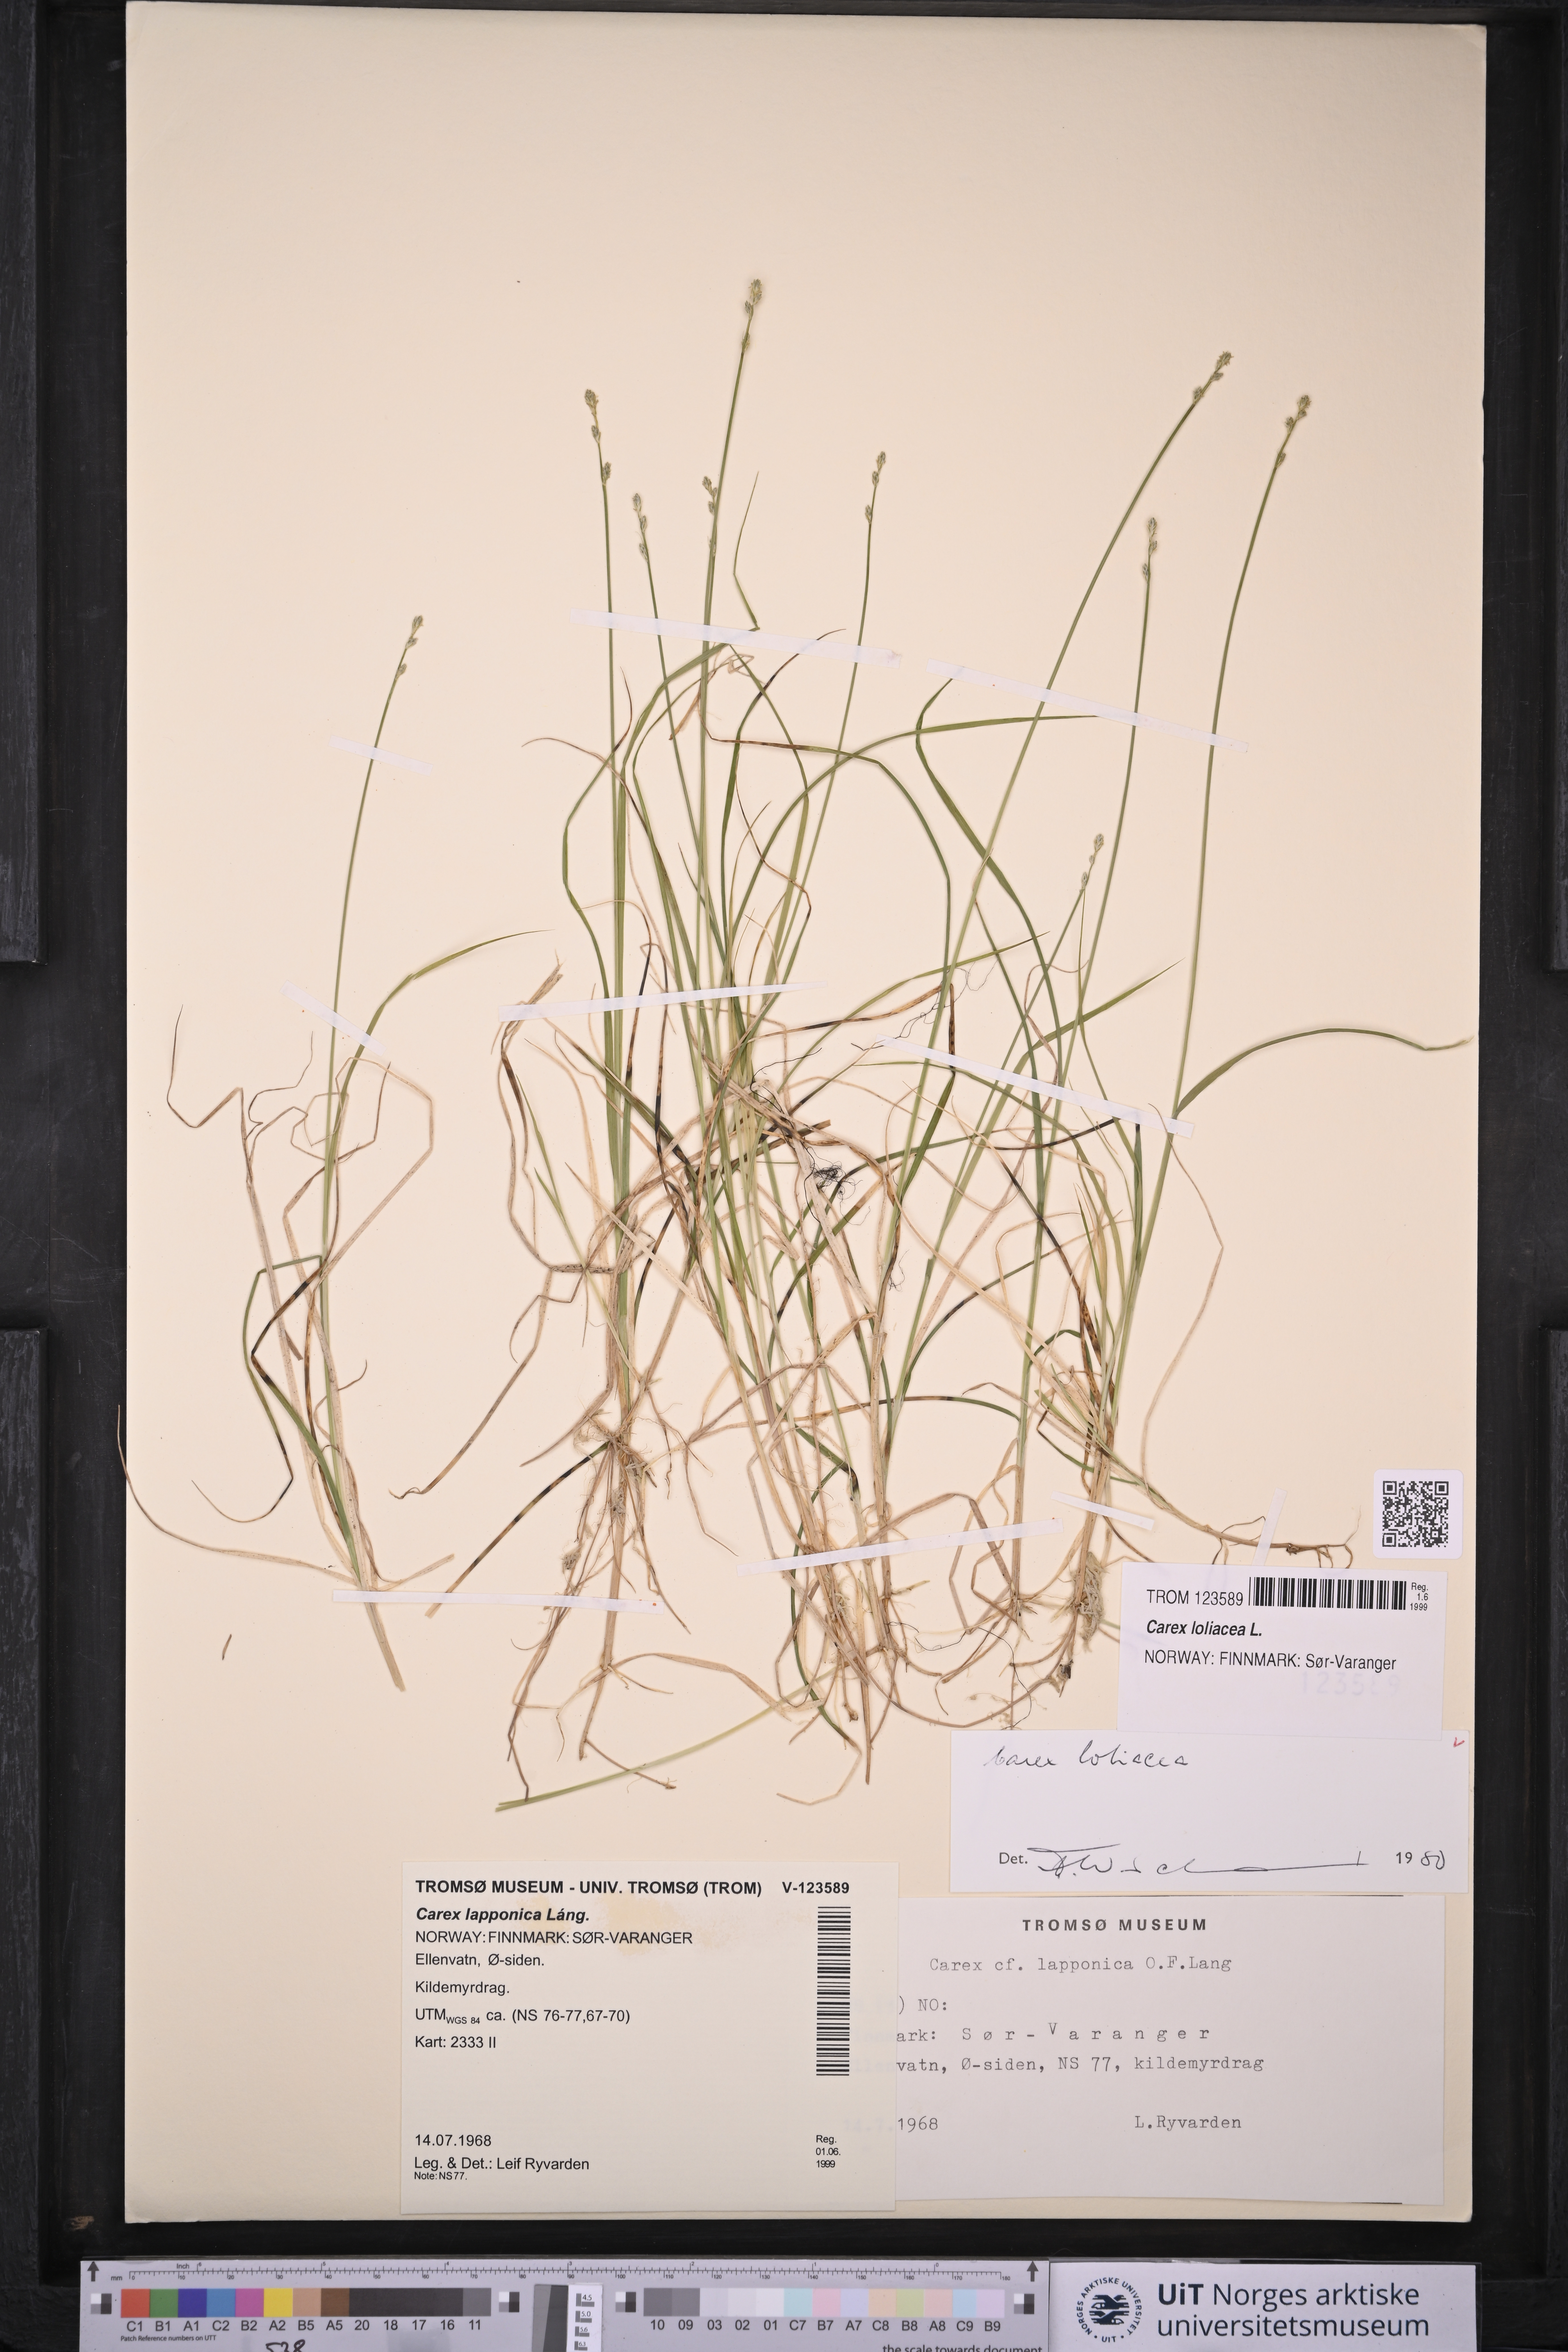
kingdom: Plantae
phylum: Tracheophyta
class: Liliopsida
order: Poales
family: Cyperaceae
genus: Carex
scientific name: Carex loliacea
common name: Ryegrass sedge
